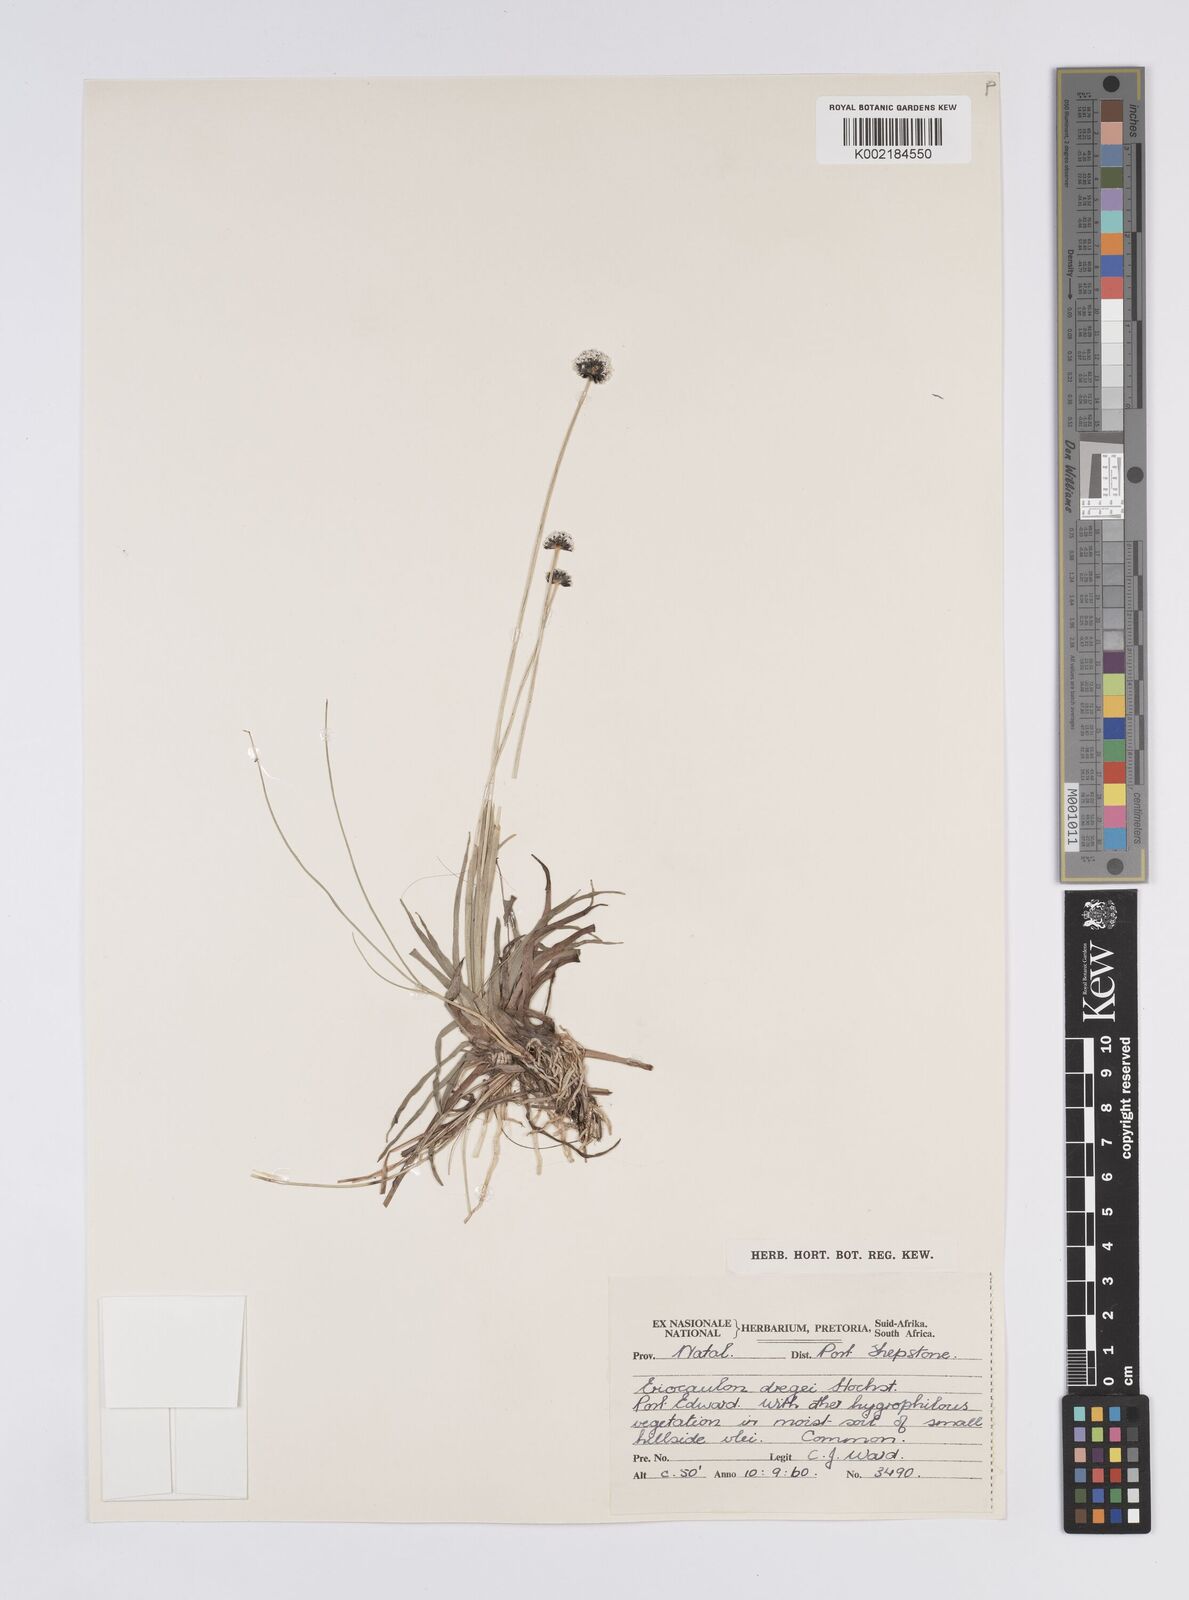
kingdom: Plantae
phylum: Tracheophyta
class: Liliopsida
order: Poales
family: Eriocaulaceae
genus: Eriocaulon
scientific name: Eriocaulon dregei
